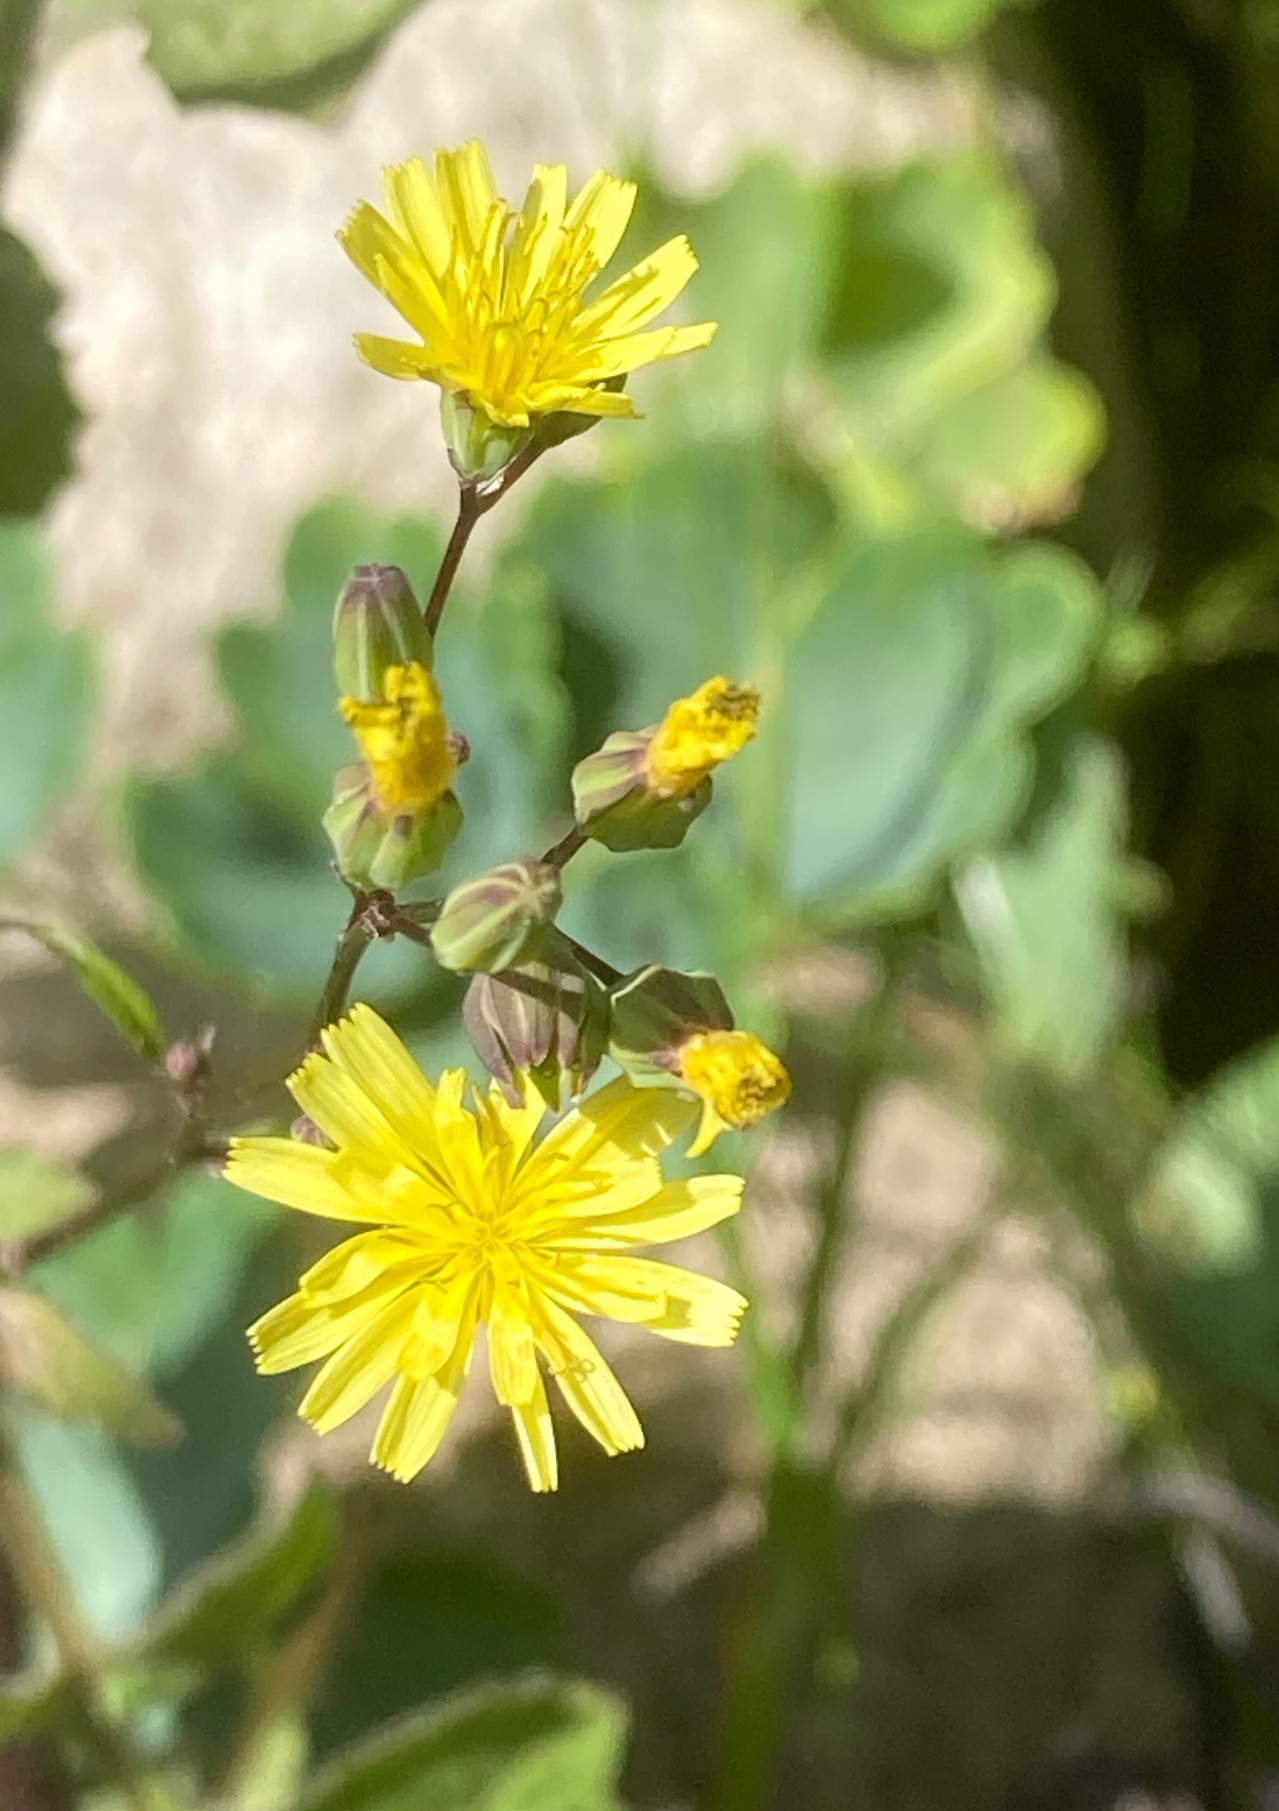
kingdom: Plantae
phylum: Tracheophyta
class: Magnoliopsida
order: Asterales
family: Asteraceae
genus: Lapsana
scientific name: Lapsana communis
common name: Haremad
